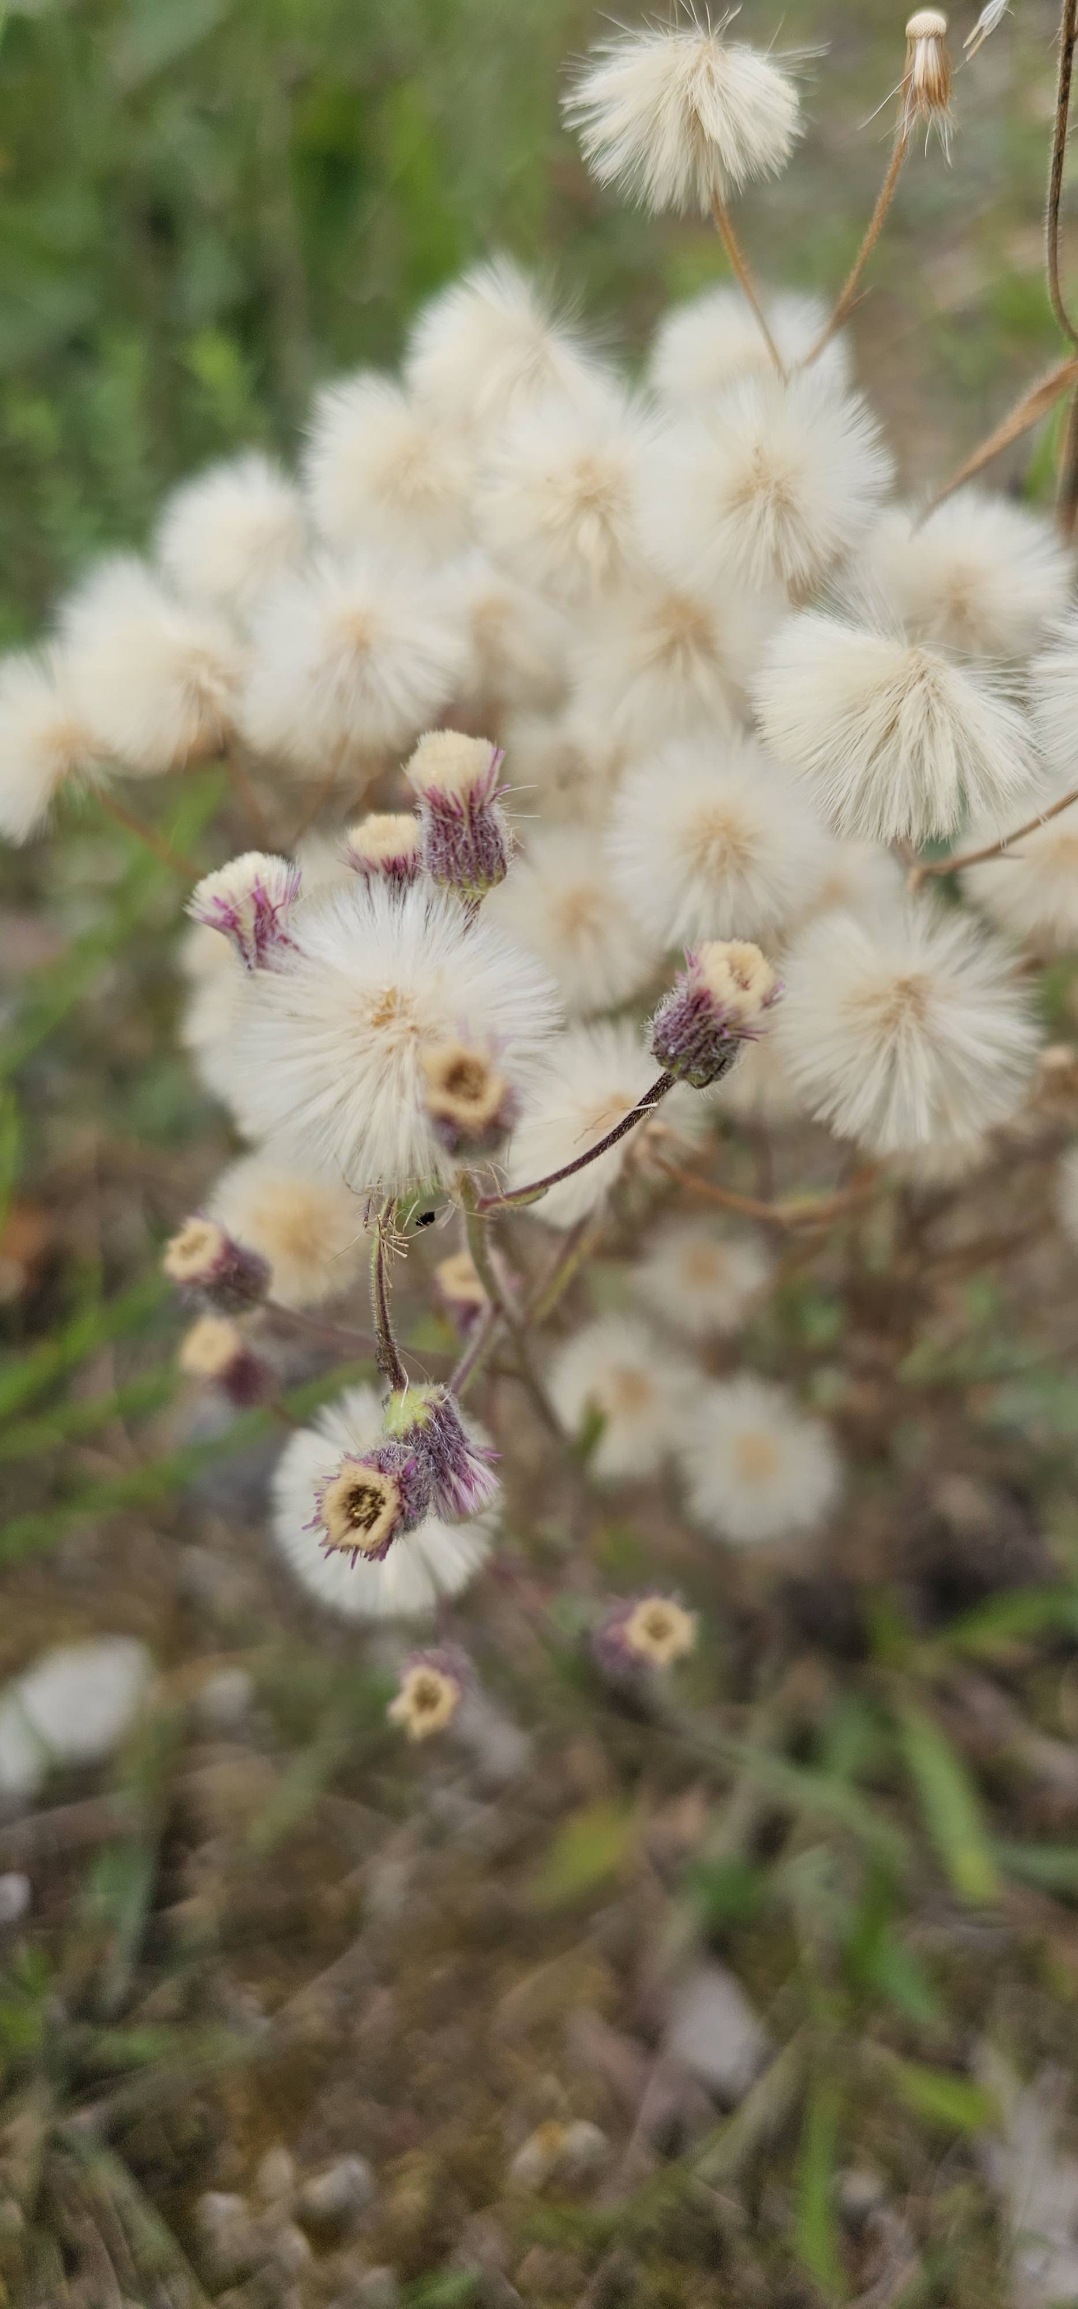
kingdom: Plantae
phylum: Tracheophyta
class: Magnoliopsida
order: Asterales
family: Asteraceae
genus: Erigeron
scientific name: Erigeron acris
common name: Bitter bakkestjerne
